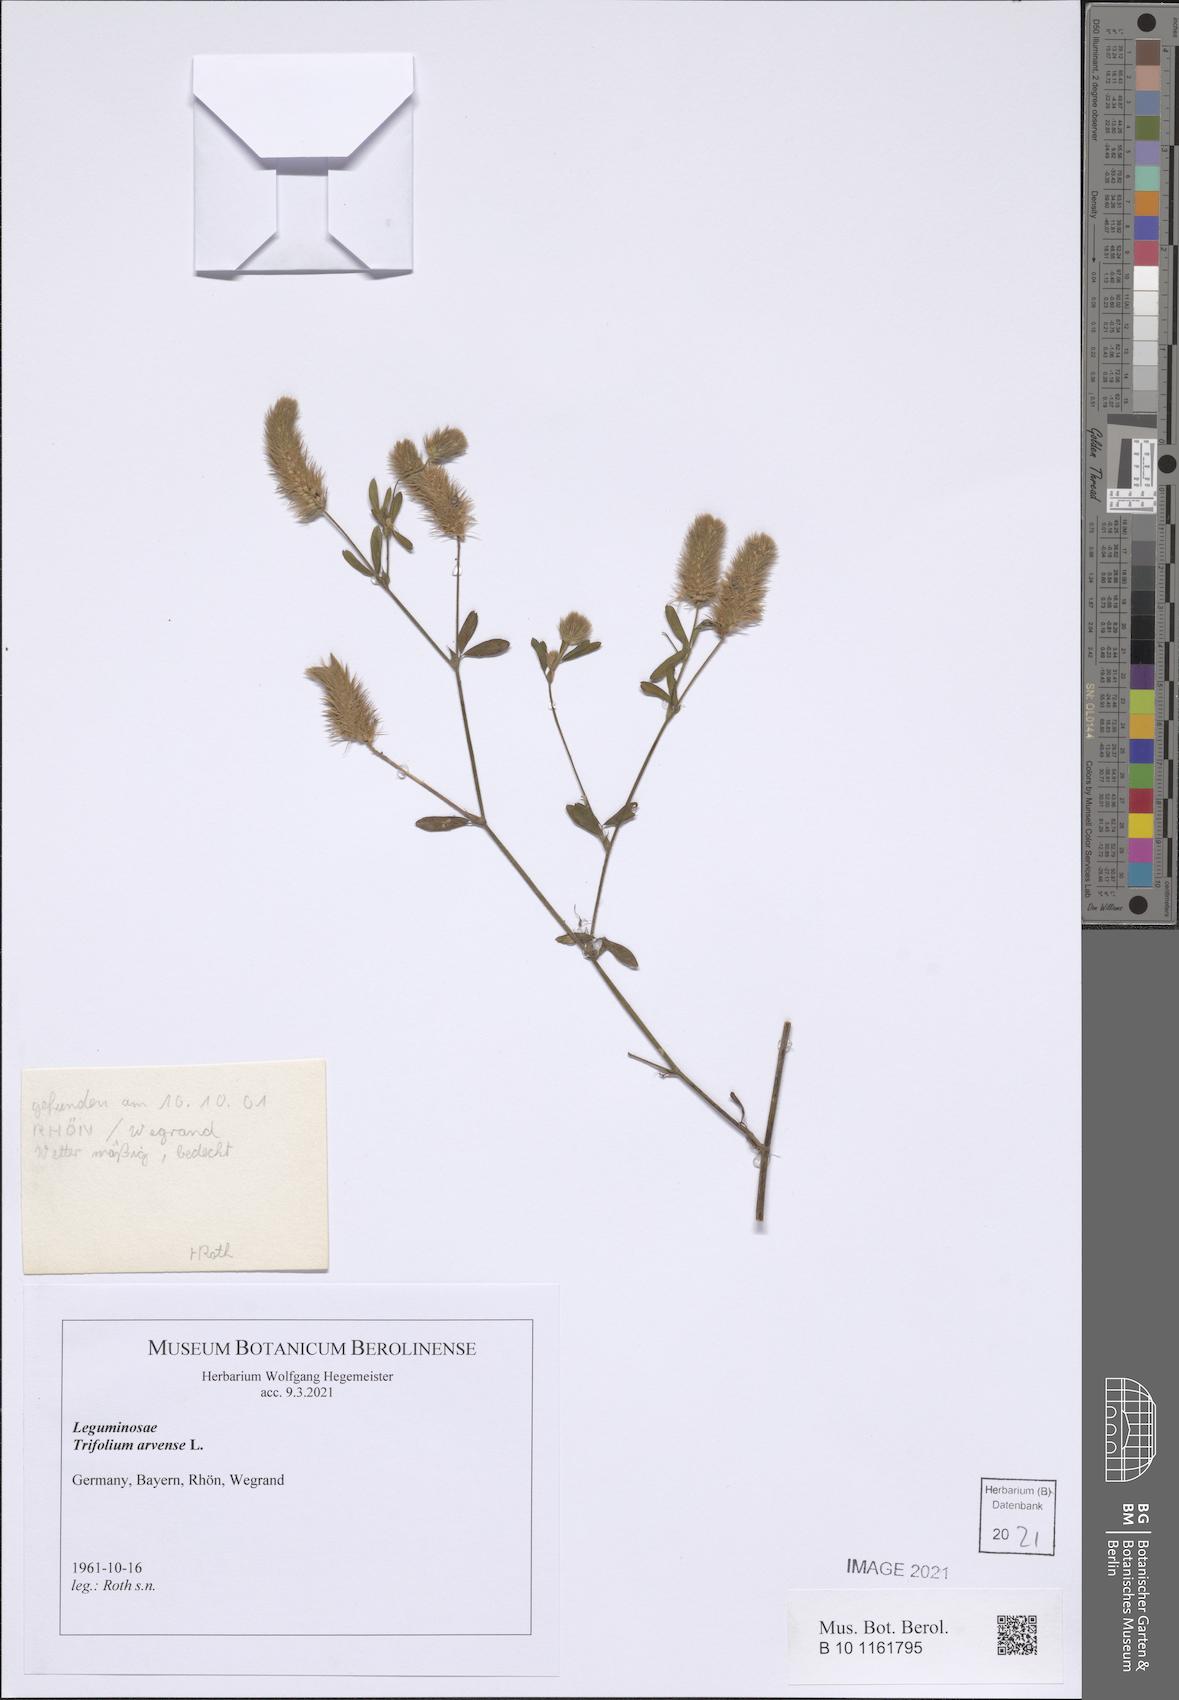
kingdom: Plantae
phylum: Tracheophyta
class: Magnoliopsida
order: Fabales
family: Fabaceae
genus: Trifolium
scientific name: Trifolium arvense
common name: Hare's-foot clover
